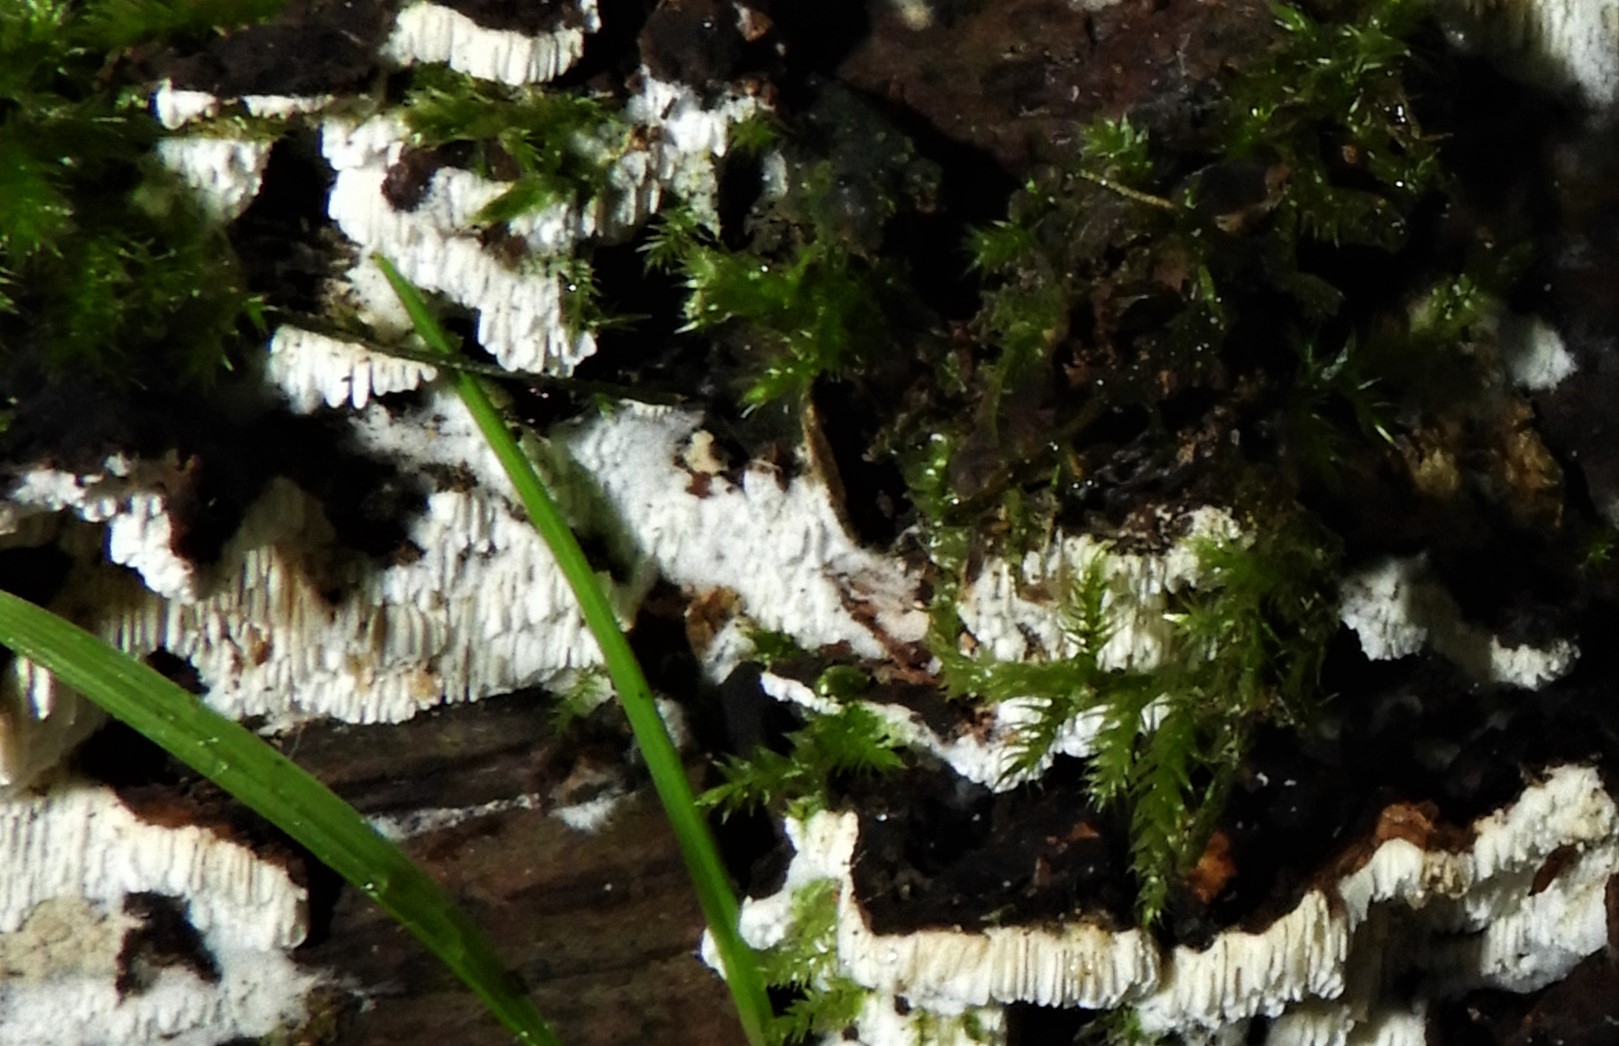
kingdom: Fungi
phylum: Basidiomycota
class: Agaricomycetes
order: Hymenochaetales
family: Schizoporaceae
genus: Xylodon
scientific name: Xylodon
